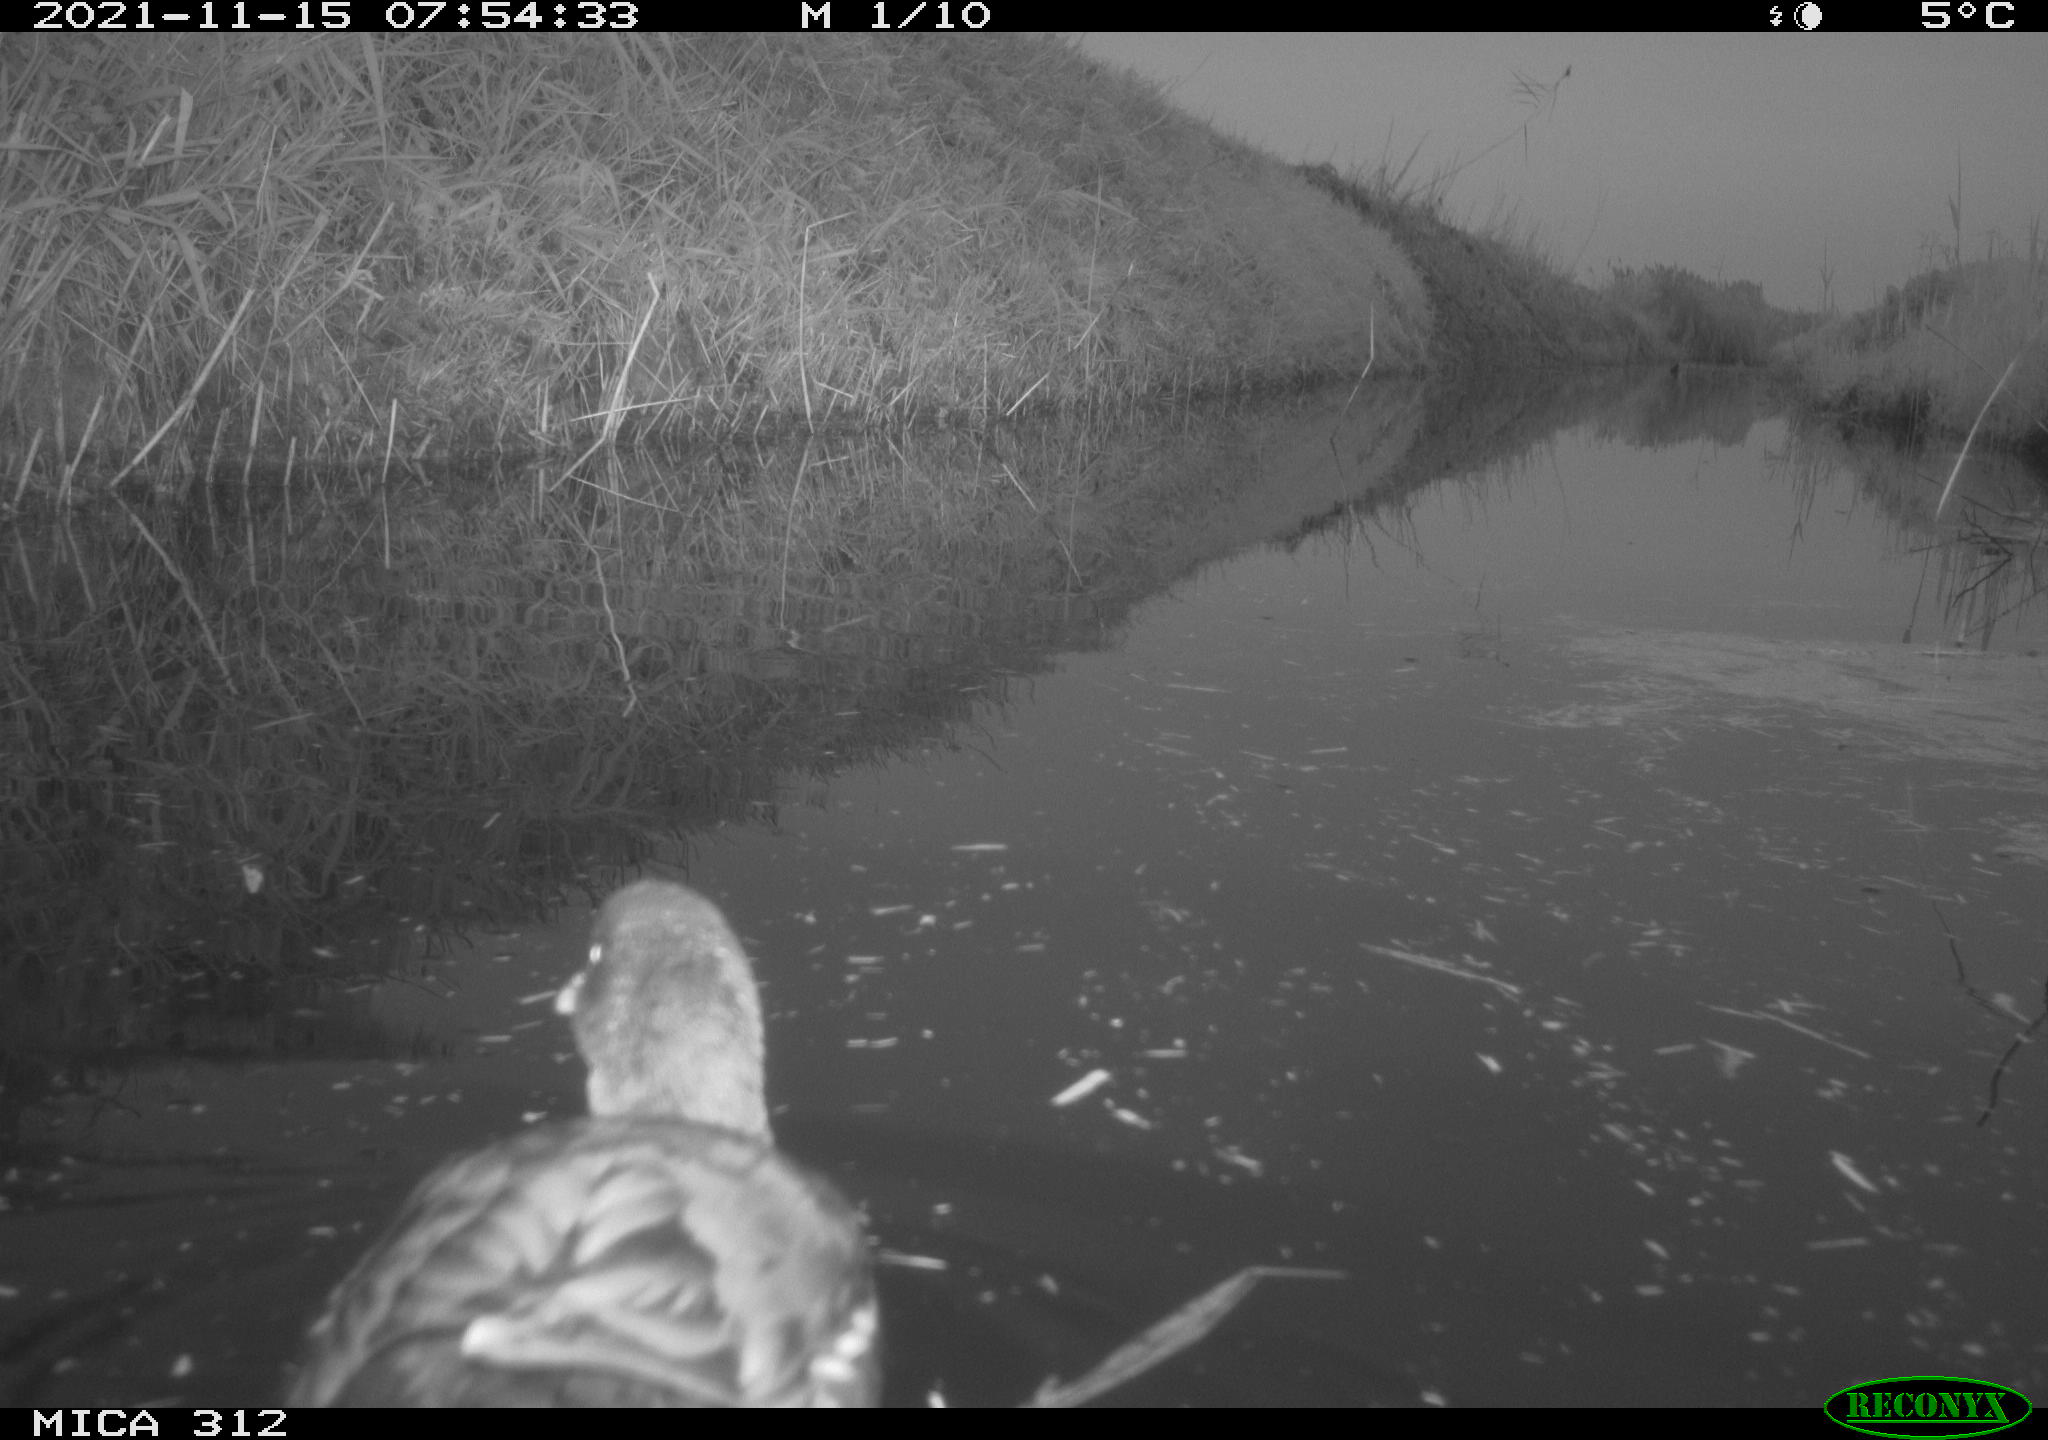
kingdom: Animalia
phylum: Chordata
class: Aves
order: Anseriformes
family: Anatidae
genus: Anas
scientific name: Anas
